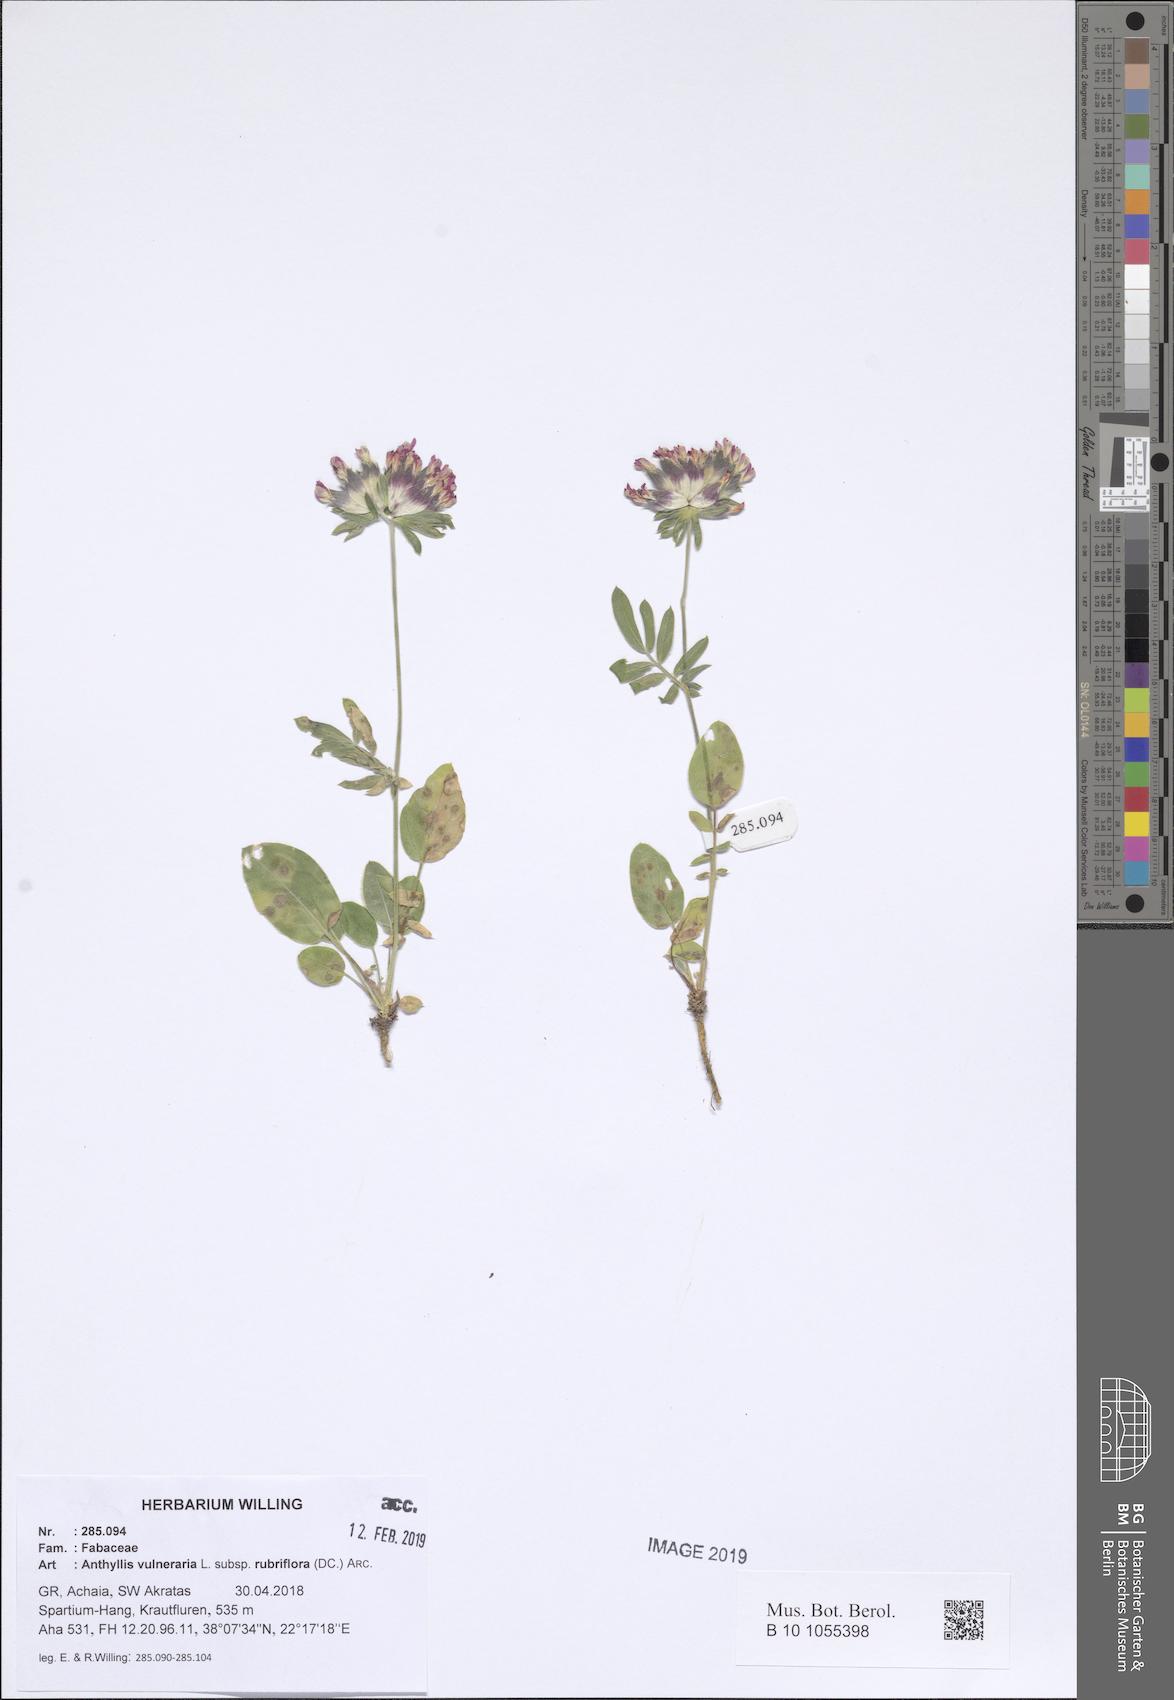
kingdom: Plantae
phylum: Tracheophyta
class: Magnoliopsida
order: Fabales
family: Fabaceae
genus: Anthyllis
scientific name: Anthyllis vulneraria
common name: Kidney vetch
